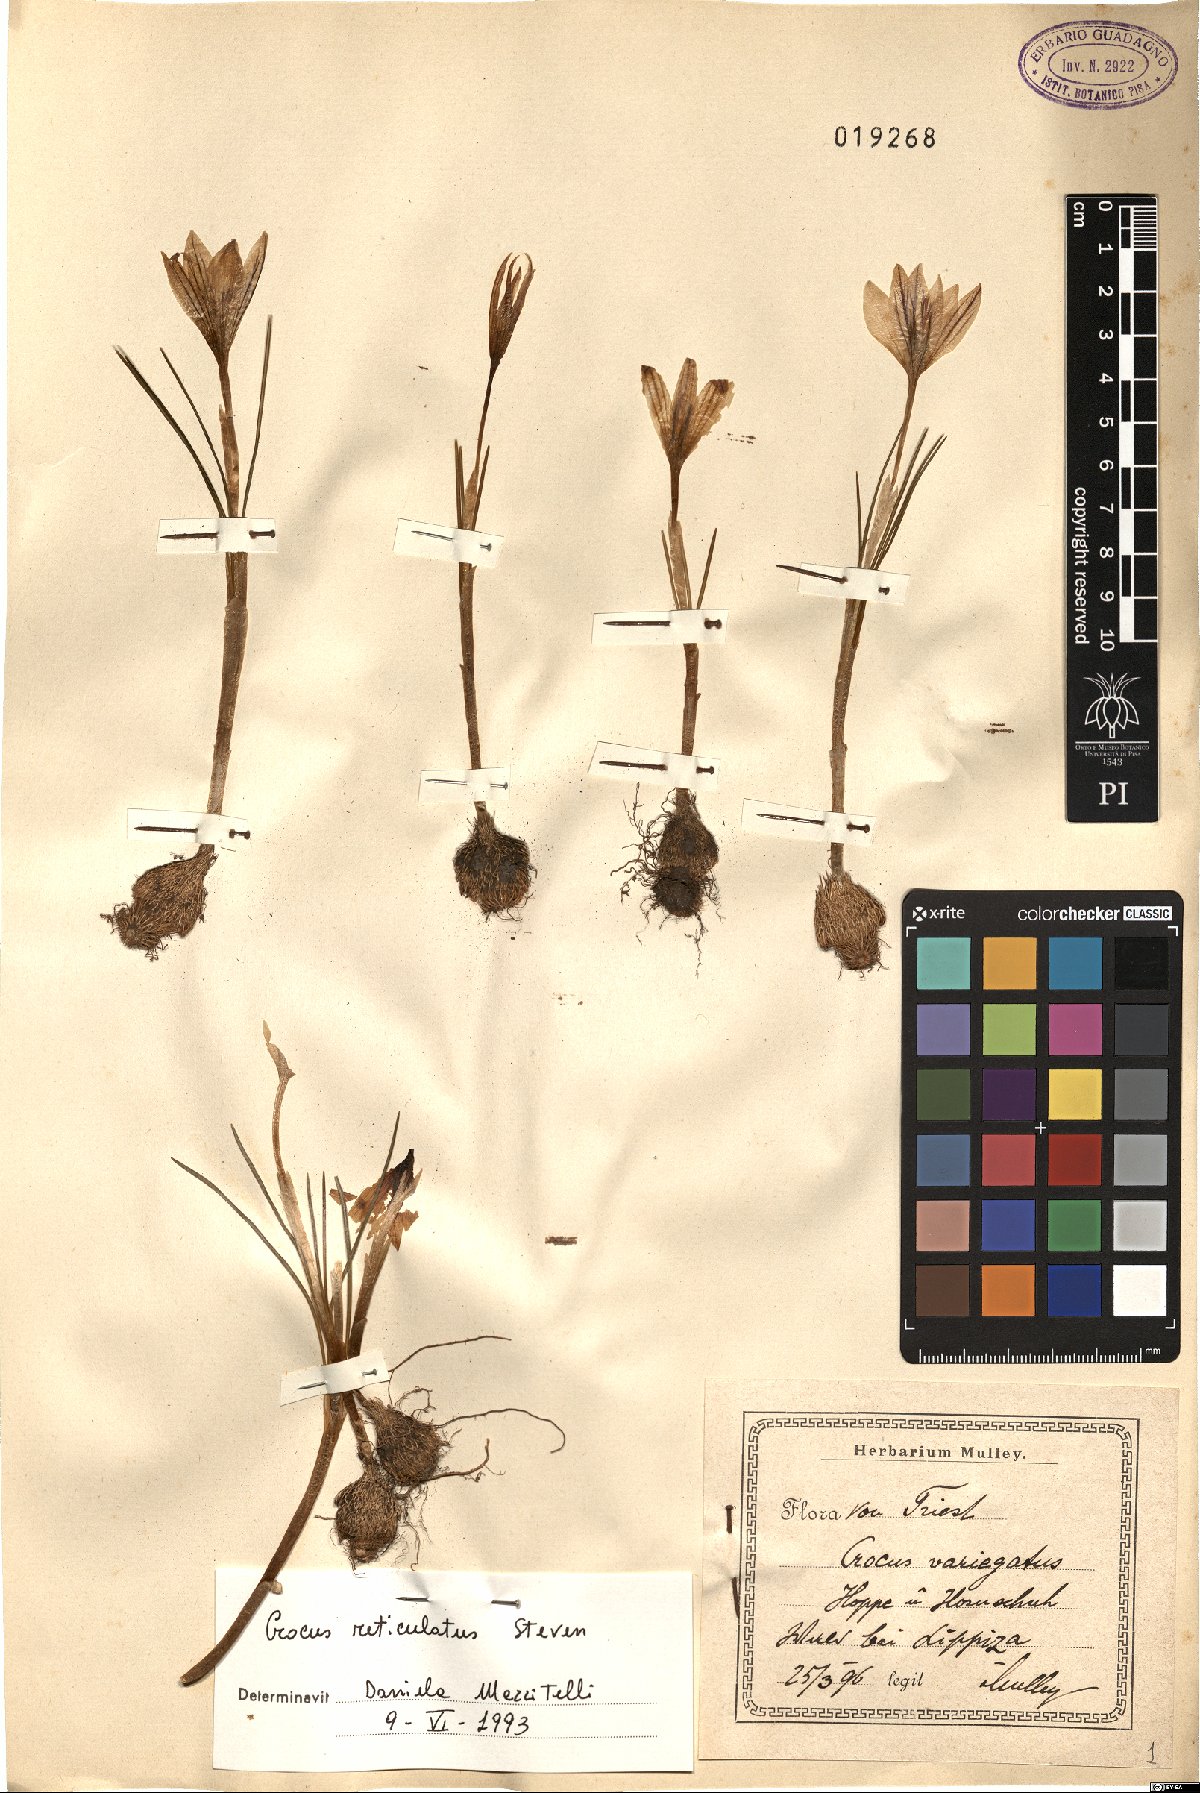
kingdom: Plantae
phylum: Tracheophyta
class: Liliopsida
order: Asparagales
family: Iridaceae
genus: Crocus
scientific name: Crocus reticulatus
